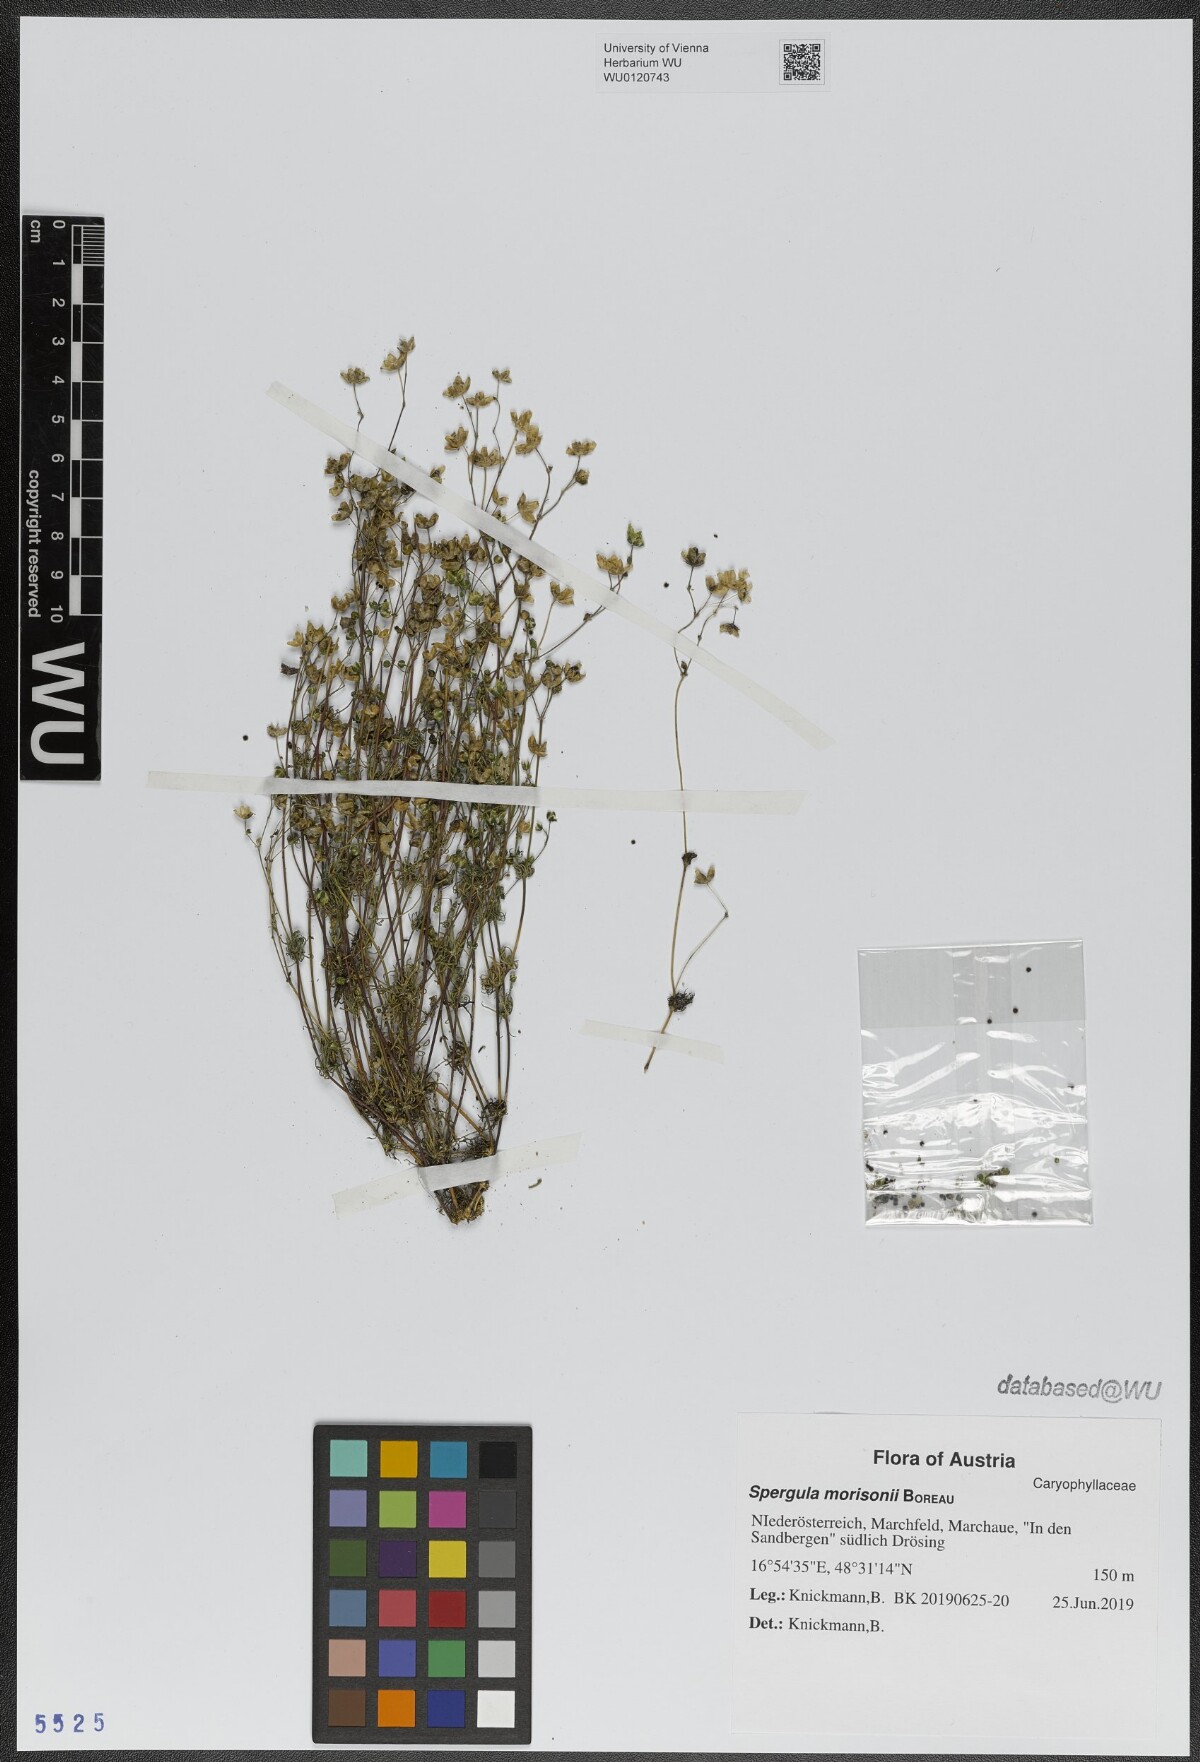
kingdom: Plantae
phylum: Tracheophyta
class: Magnoliopsida
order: Caryophyllales
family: Caryophyllaceae
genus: Spergula
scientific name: Spergula morisonii
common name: Pearlwort spurrey
